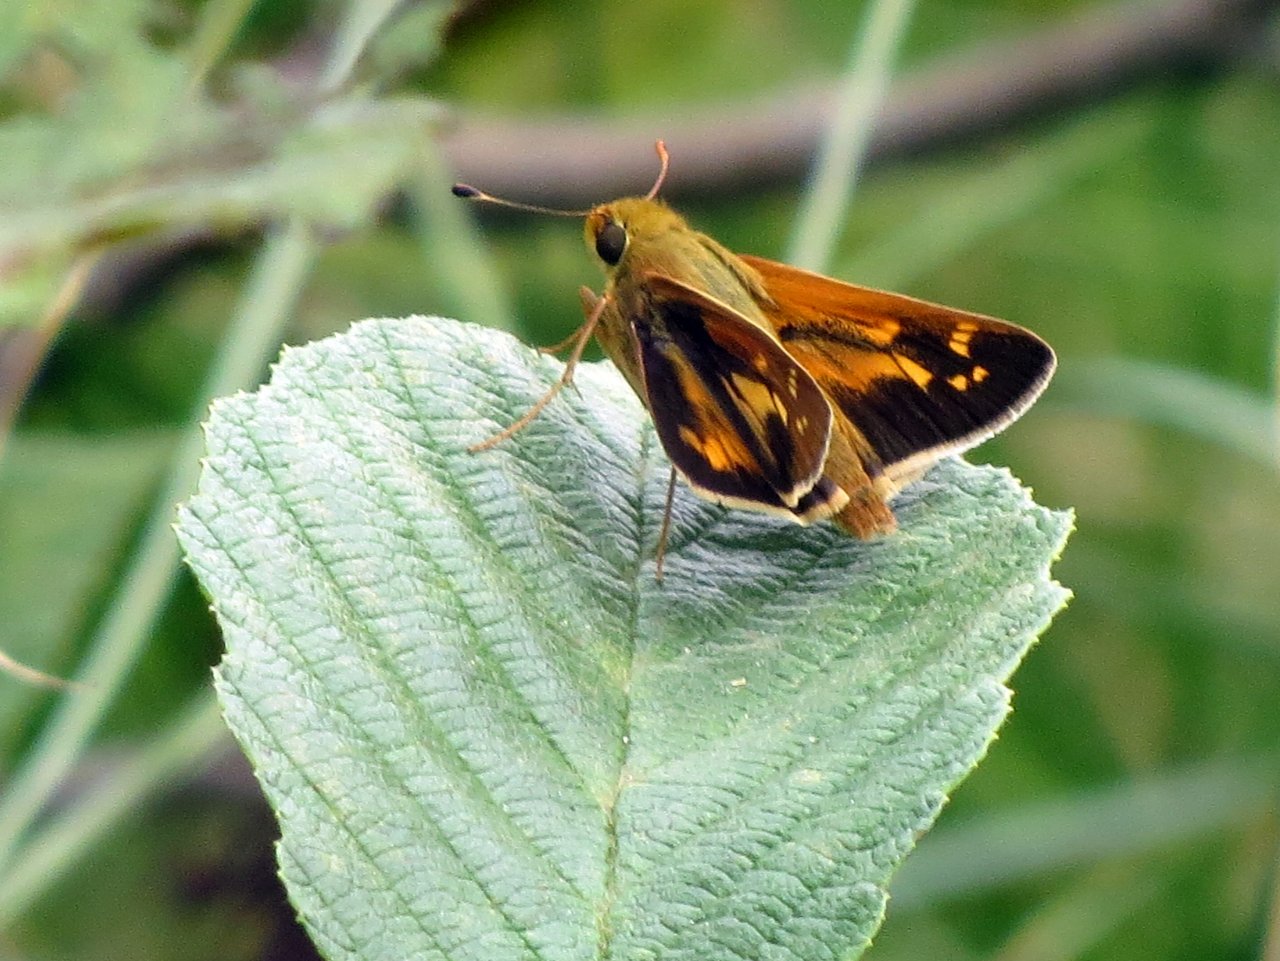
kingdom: Animalia
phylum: Arthropoda
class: Insecta
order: Lepidoptera
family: Hesperiidae
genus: Hesperia
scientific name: Hesperia leonardus
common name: Leonard's Skipper
